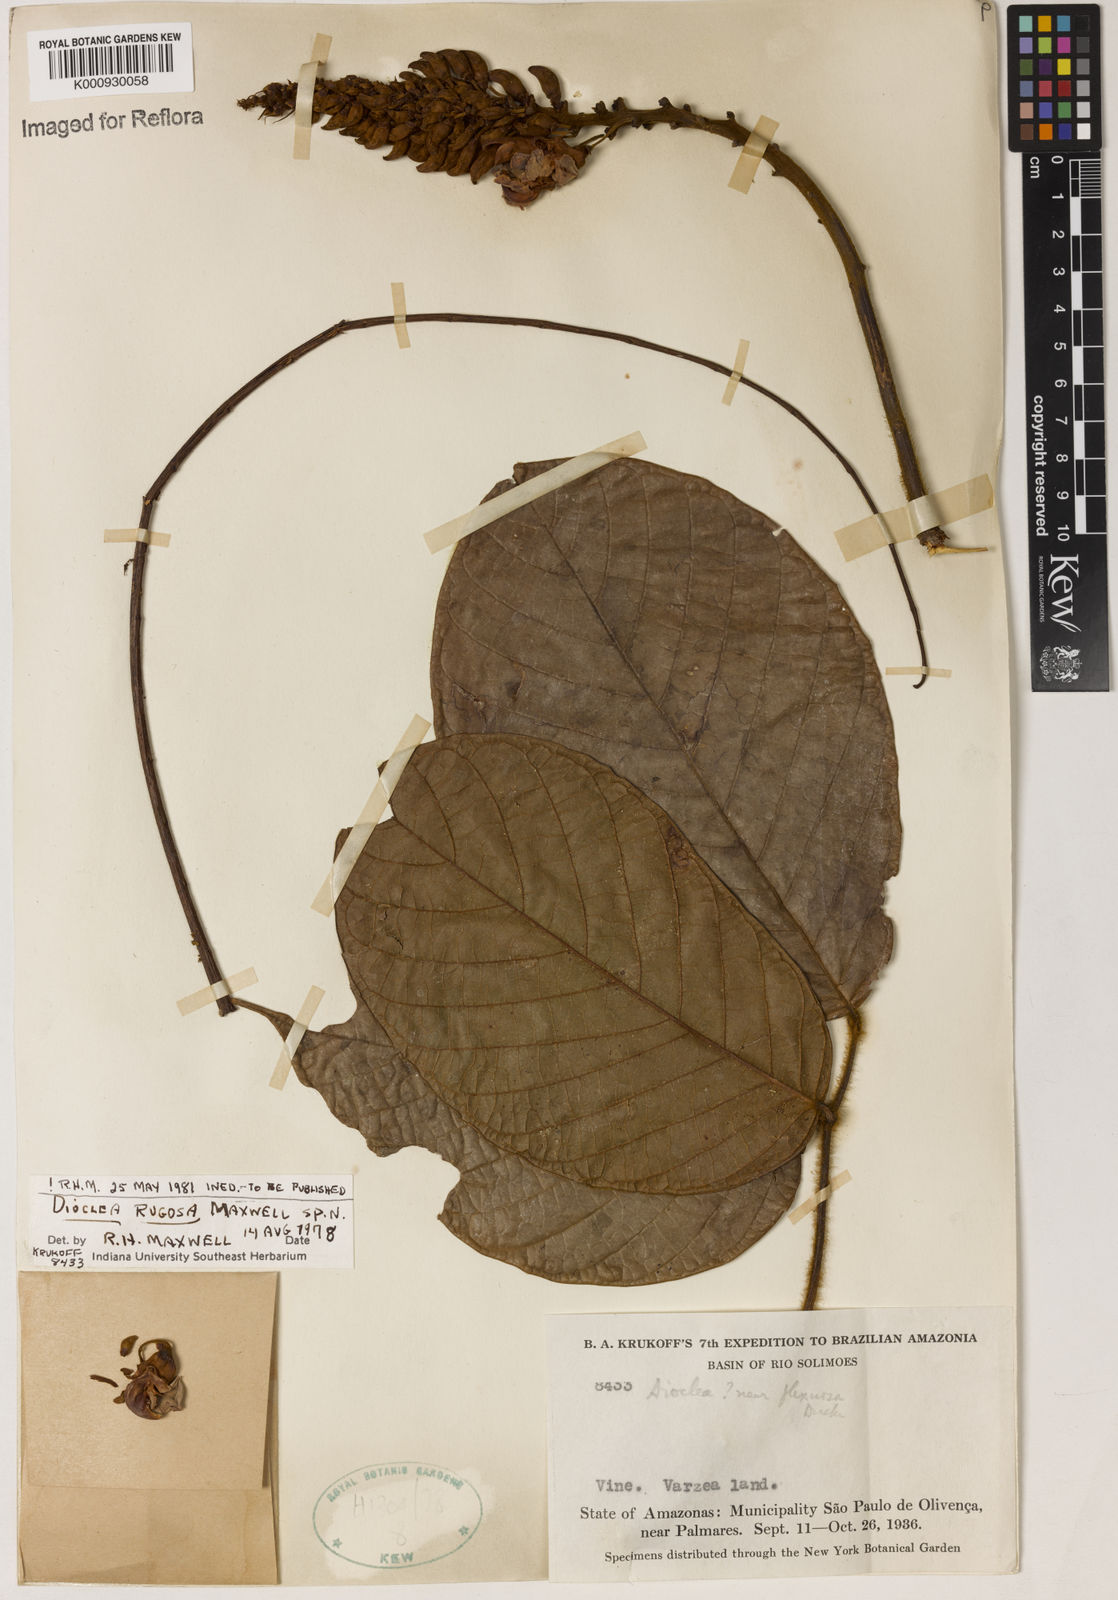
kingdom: Plantae
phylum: Tracheophyta
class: Magnoliopsida
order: Fabales
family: Fabaceae
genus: Dioclea
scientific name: Dioclea
